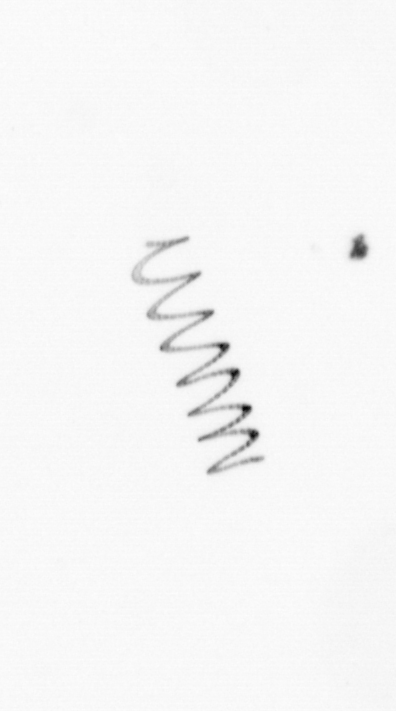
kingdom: Chromista
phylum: Ochrophyta
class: Bacillariophyceae
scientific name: Bacillariophyceae
